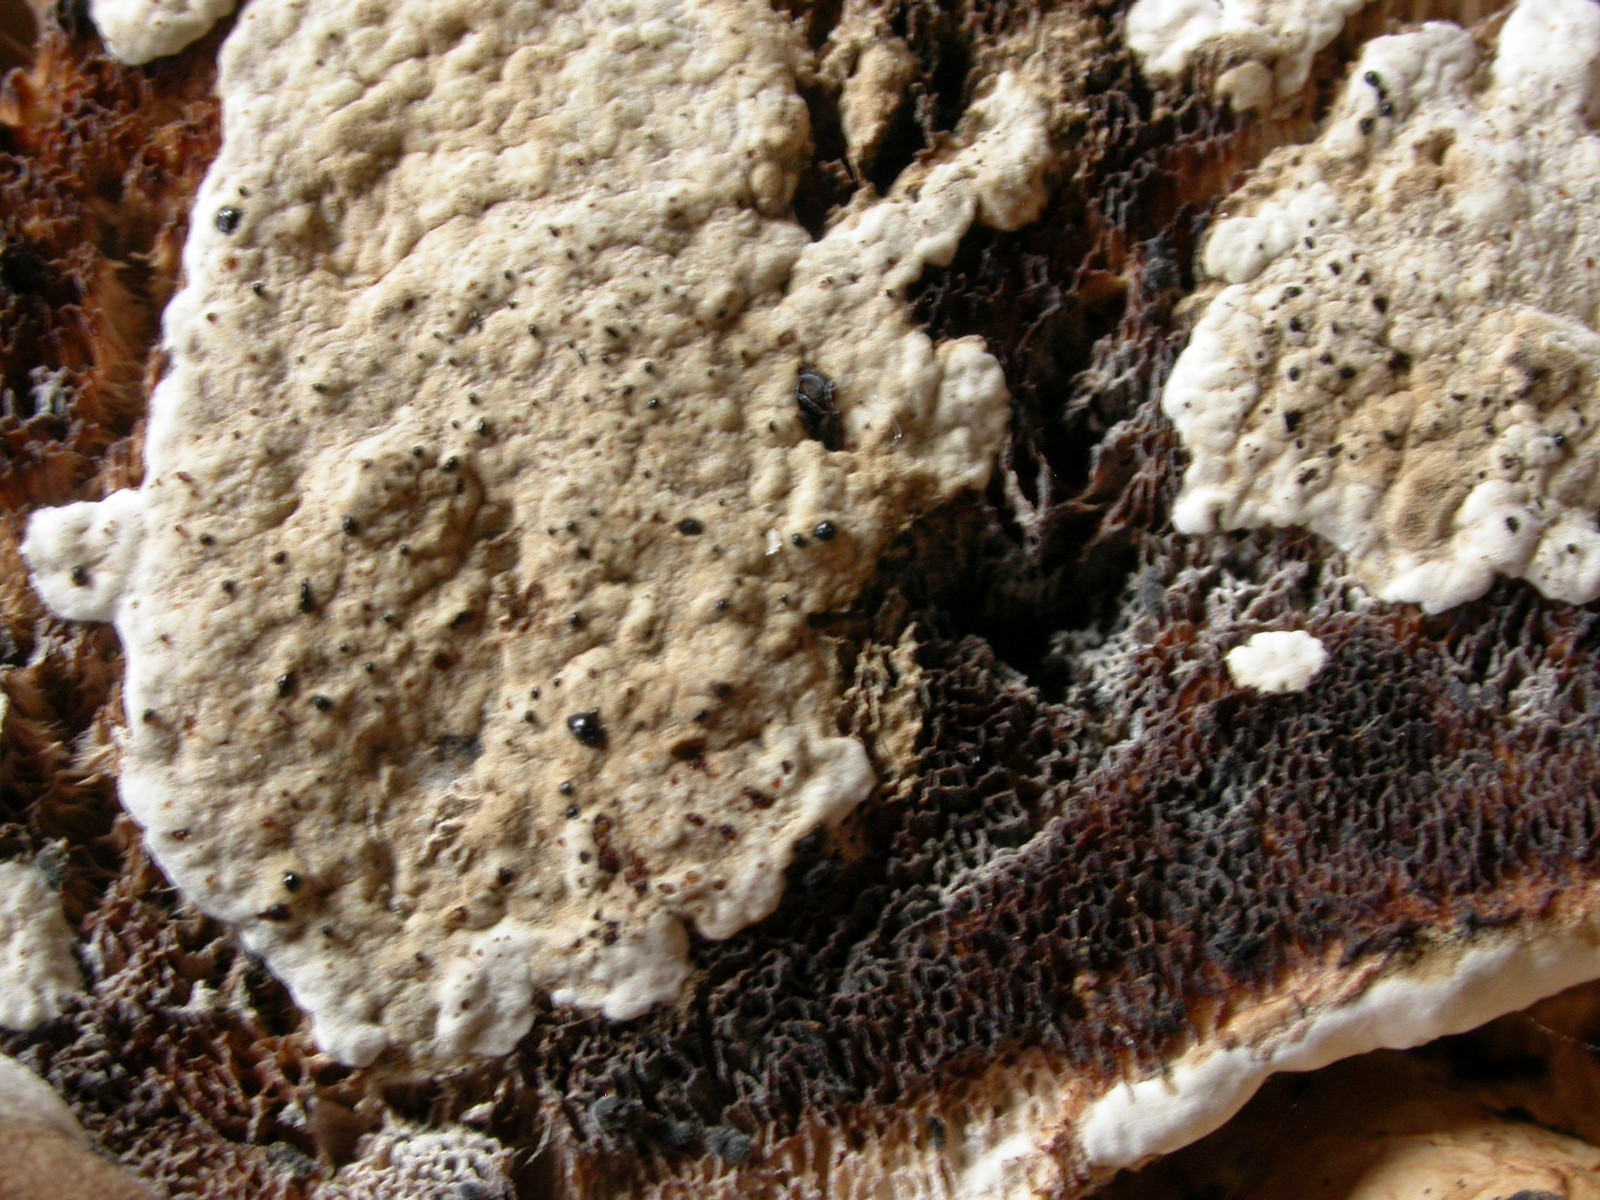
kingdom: Fungi
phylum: Ascomycota
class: Sordariomycetes
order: Hypocreales
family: Hypocreaceae
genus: Trichoderma
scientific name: Trichoderma pulvinatum
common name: snyltende kødkerne
